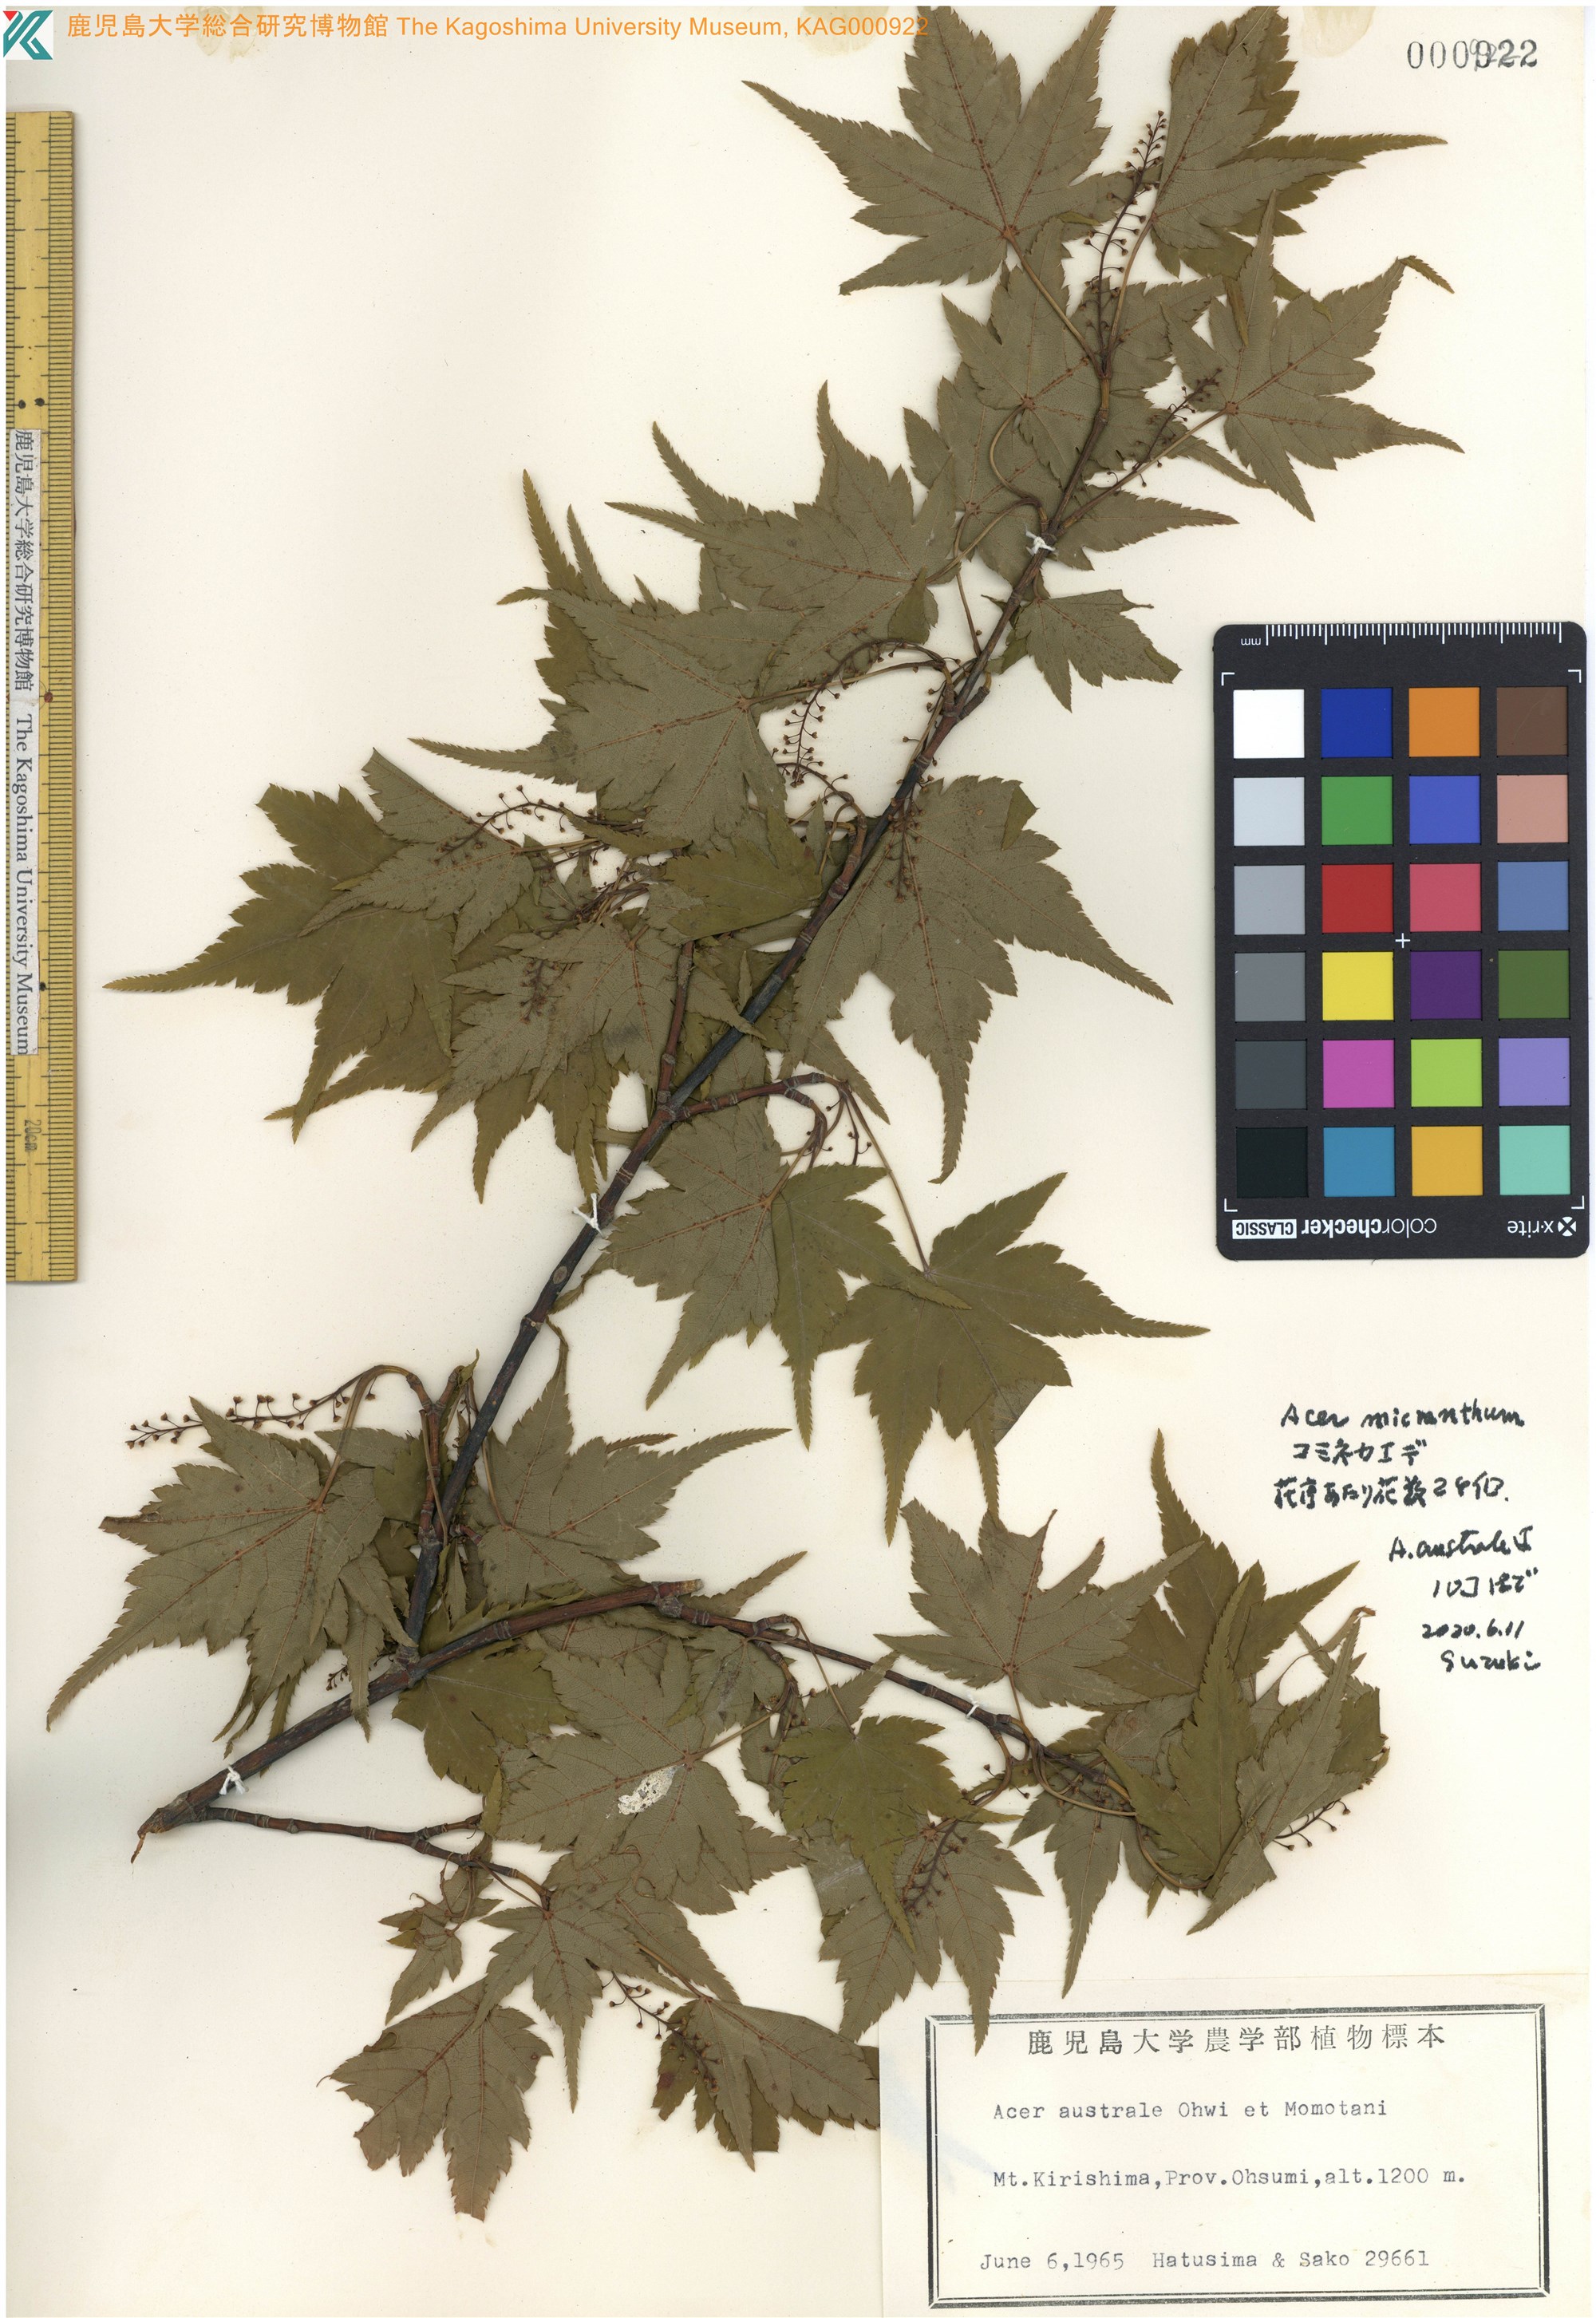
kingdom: Plantae
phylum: Tracheophyta
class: Magnoliopsida
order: Sapindales
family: Sapindaceae
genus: Acer
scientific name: Acer tschonoskii
